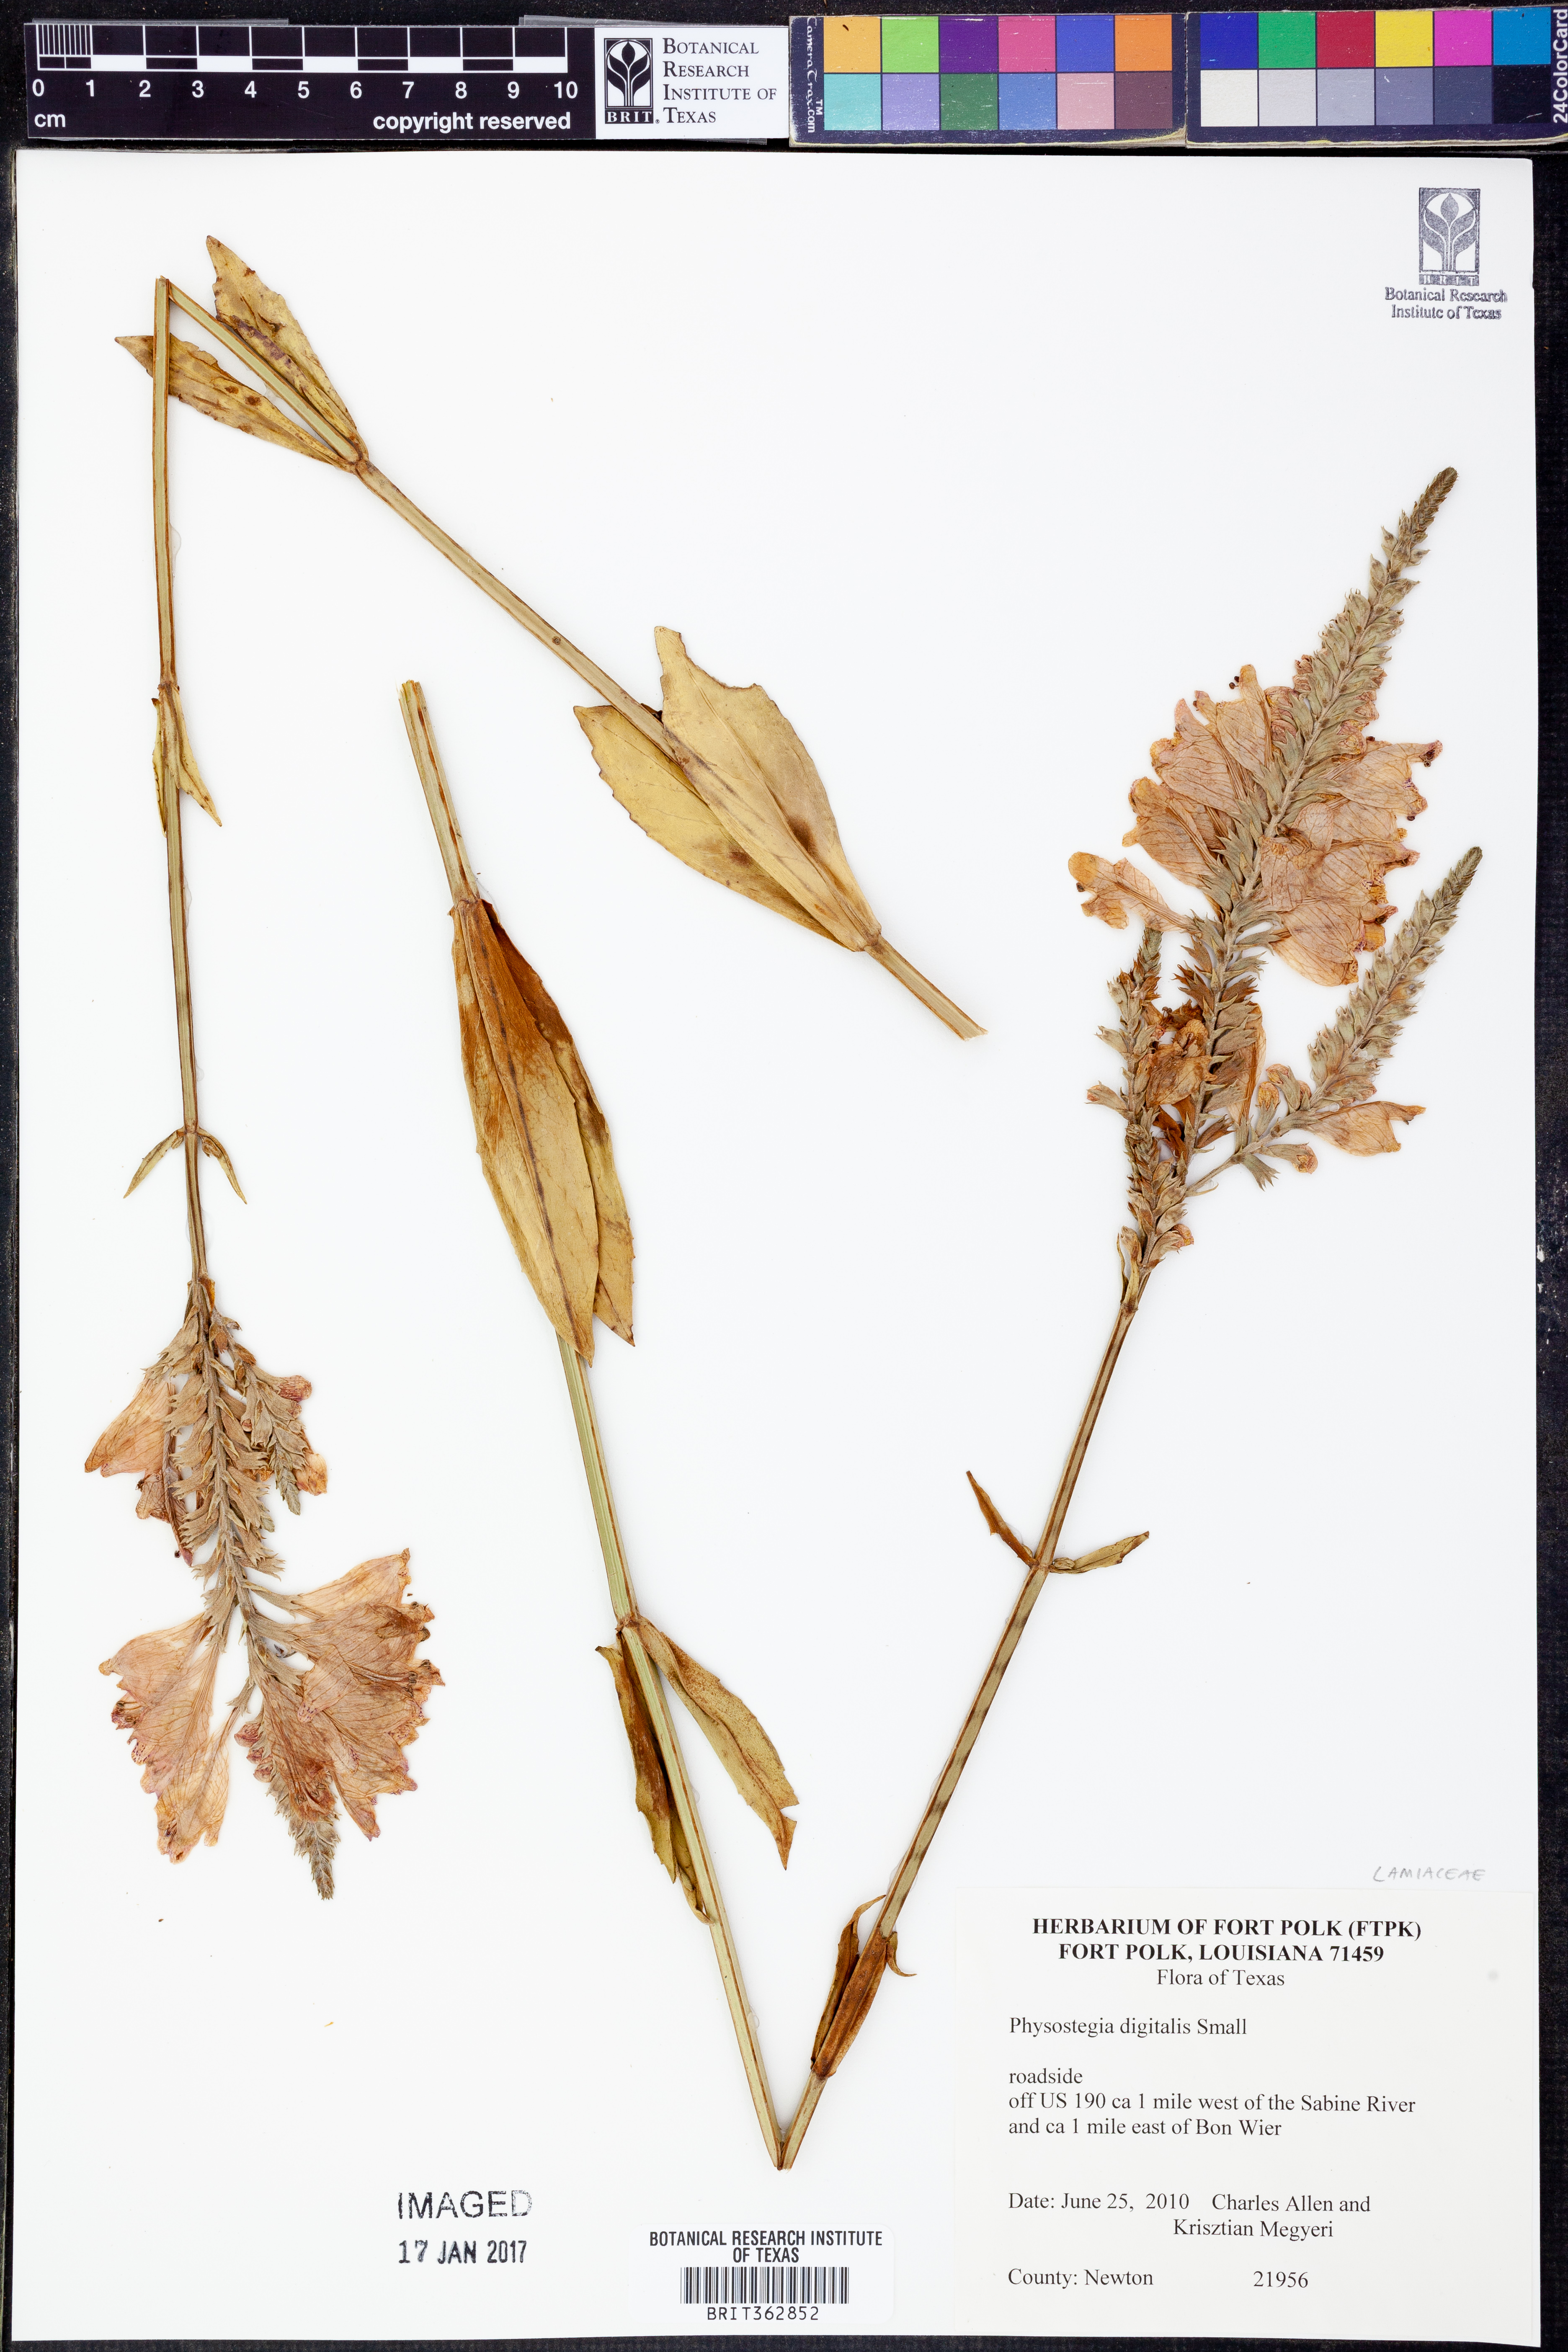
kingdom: Plantae
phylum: Tracheophyta
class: Magnoliopsida
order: Lamiales
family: Lamiaceae
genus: Physostegia
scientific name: Physostegia digitalis
